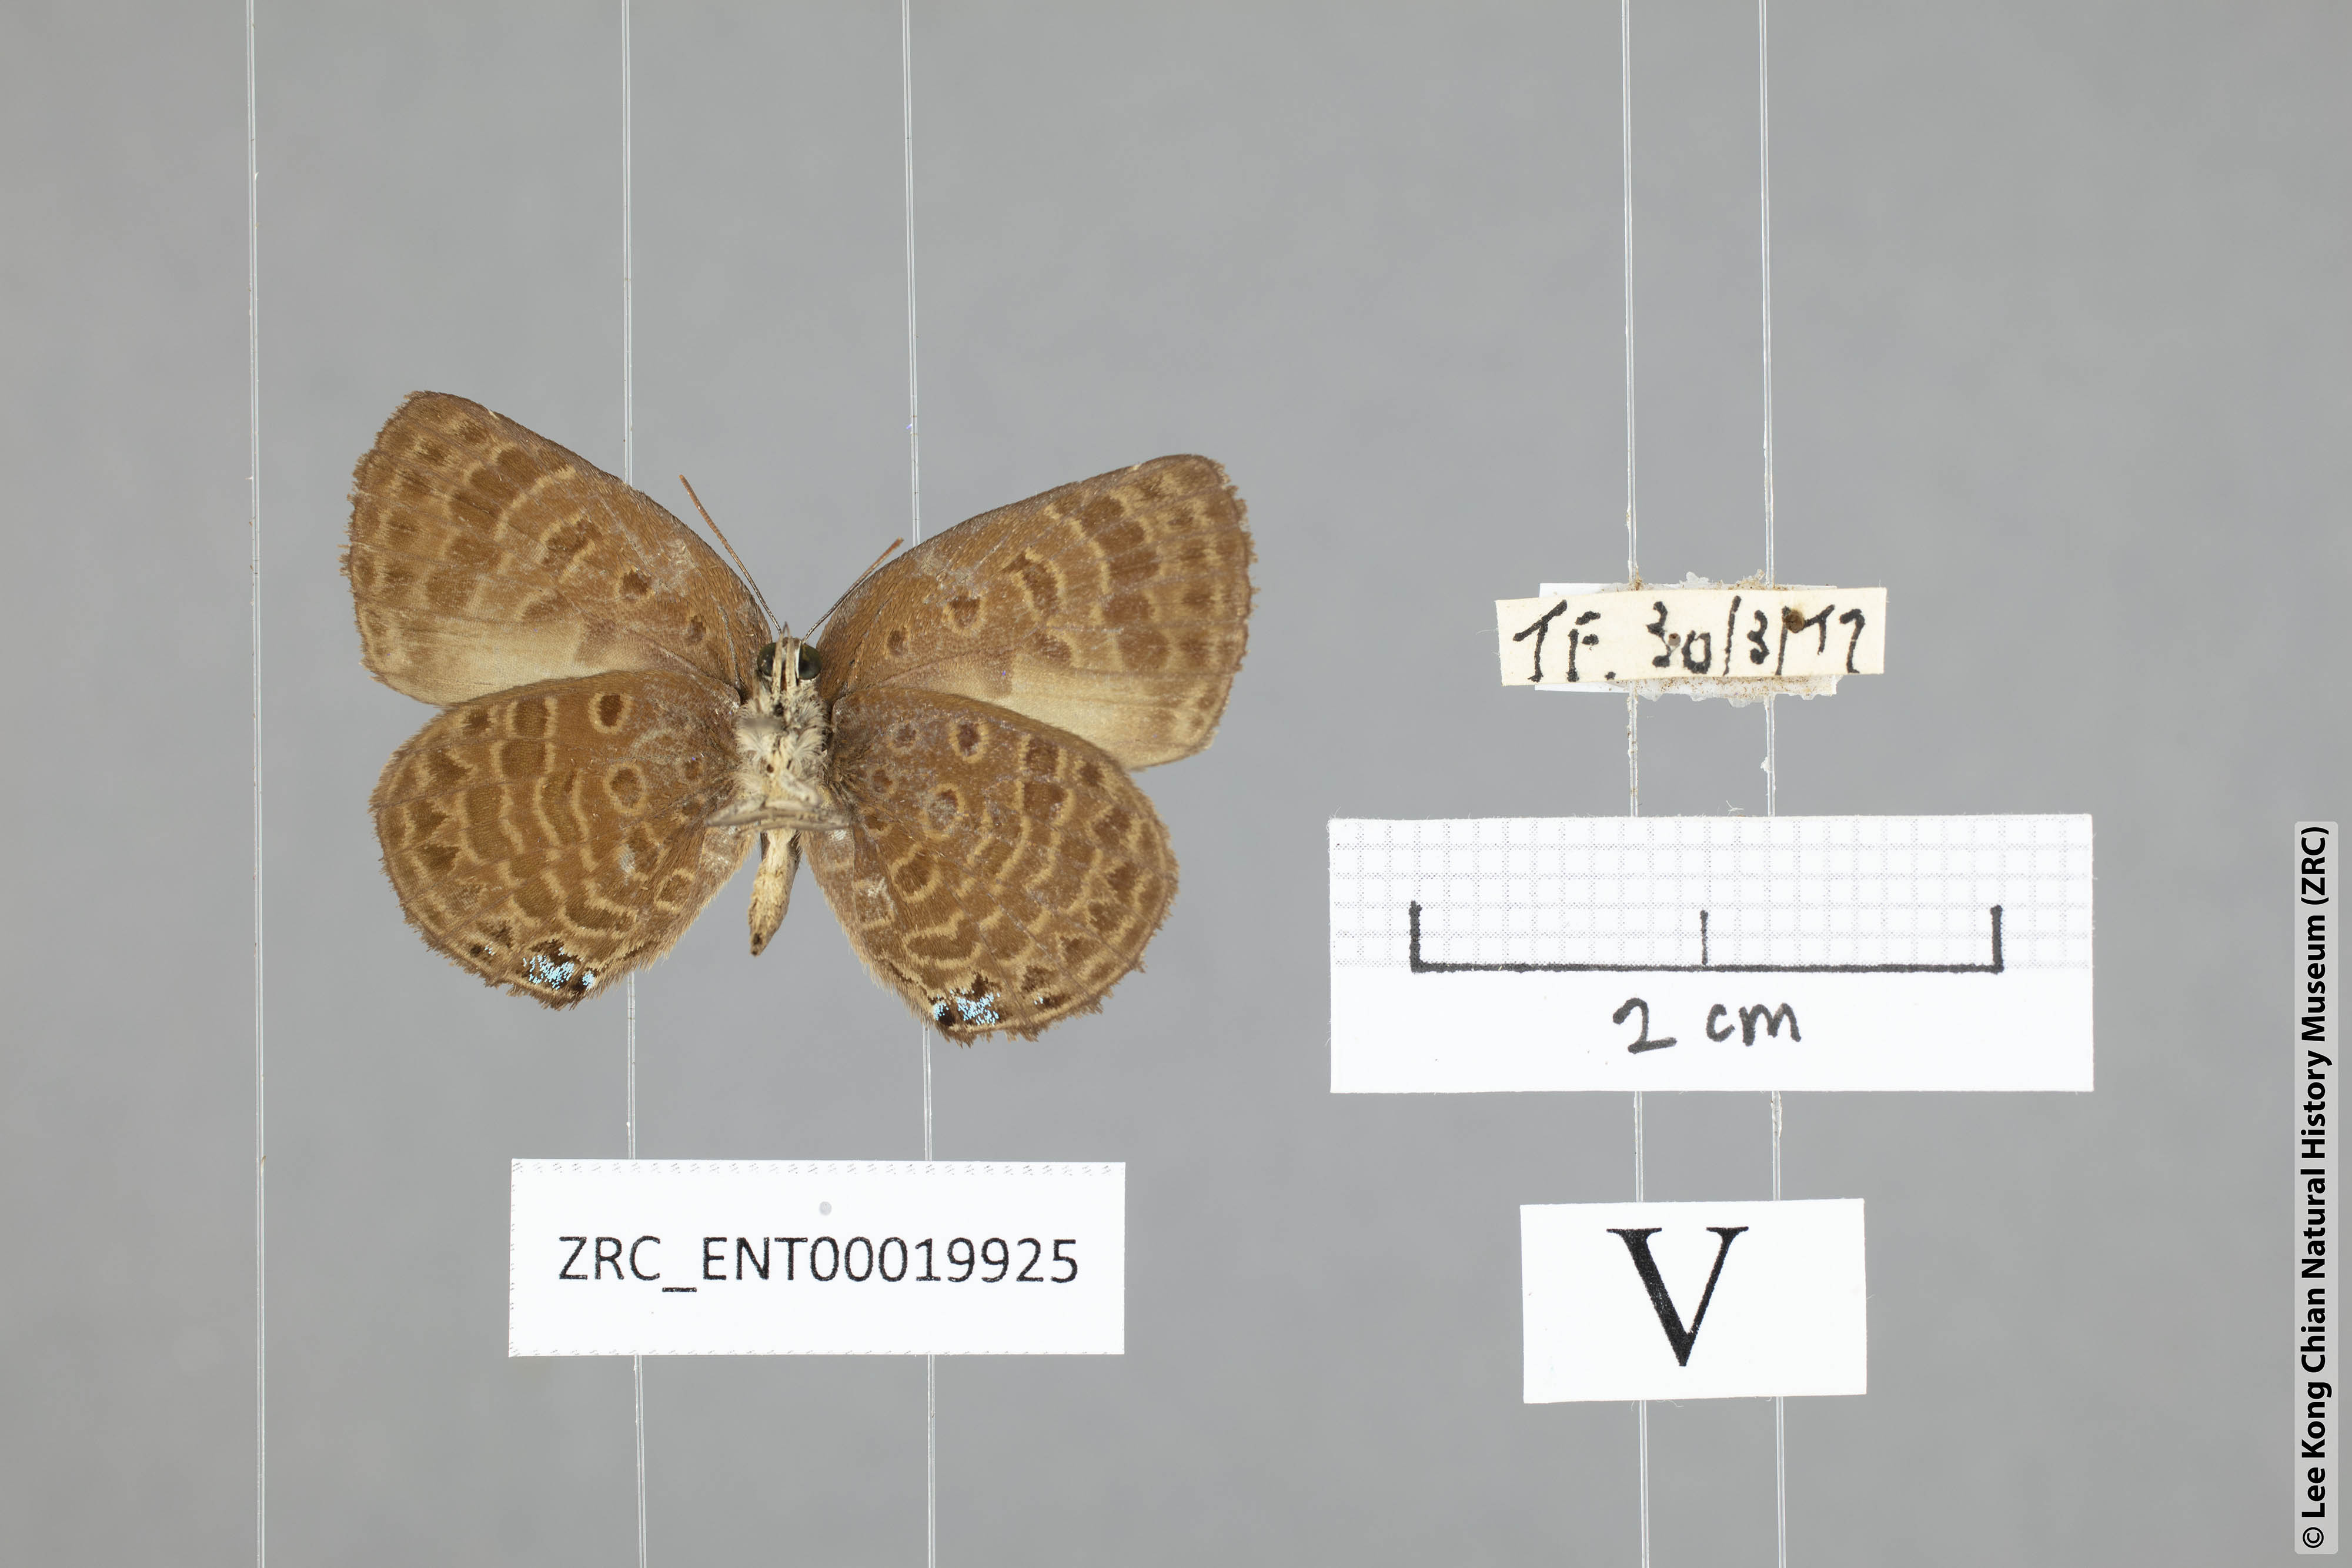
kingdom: Animalia
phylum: Arthropoda
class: Insecta
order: Lepidoptera
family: Lycaenidae
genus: Arhopala
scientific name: Arhopala wildeyana
